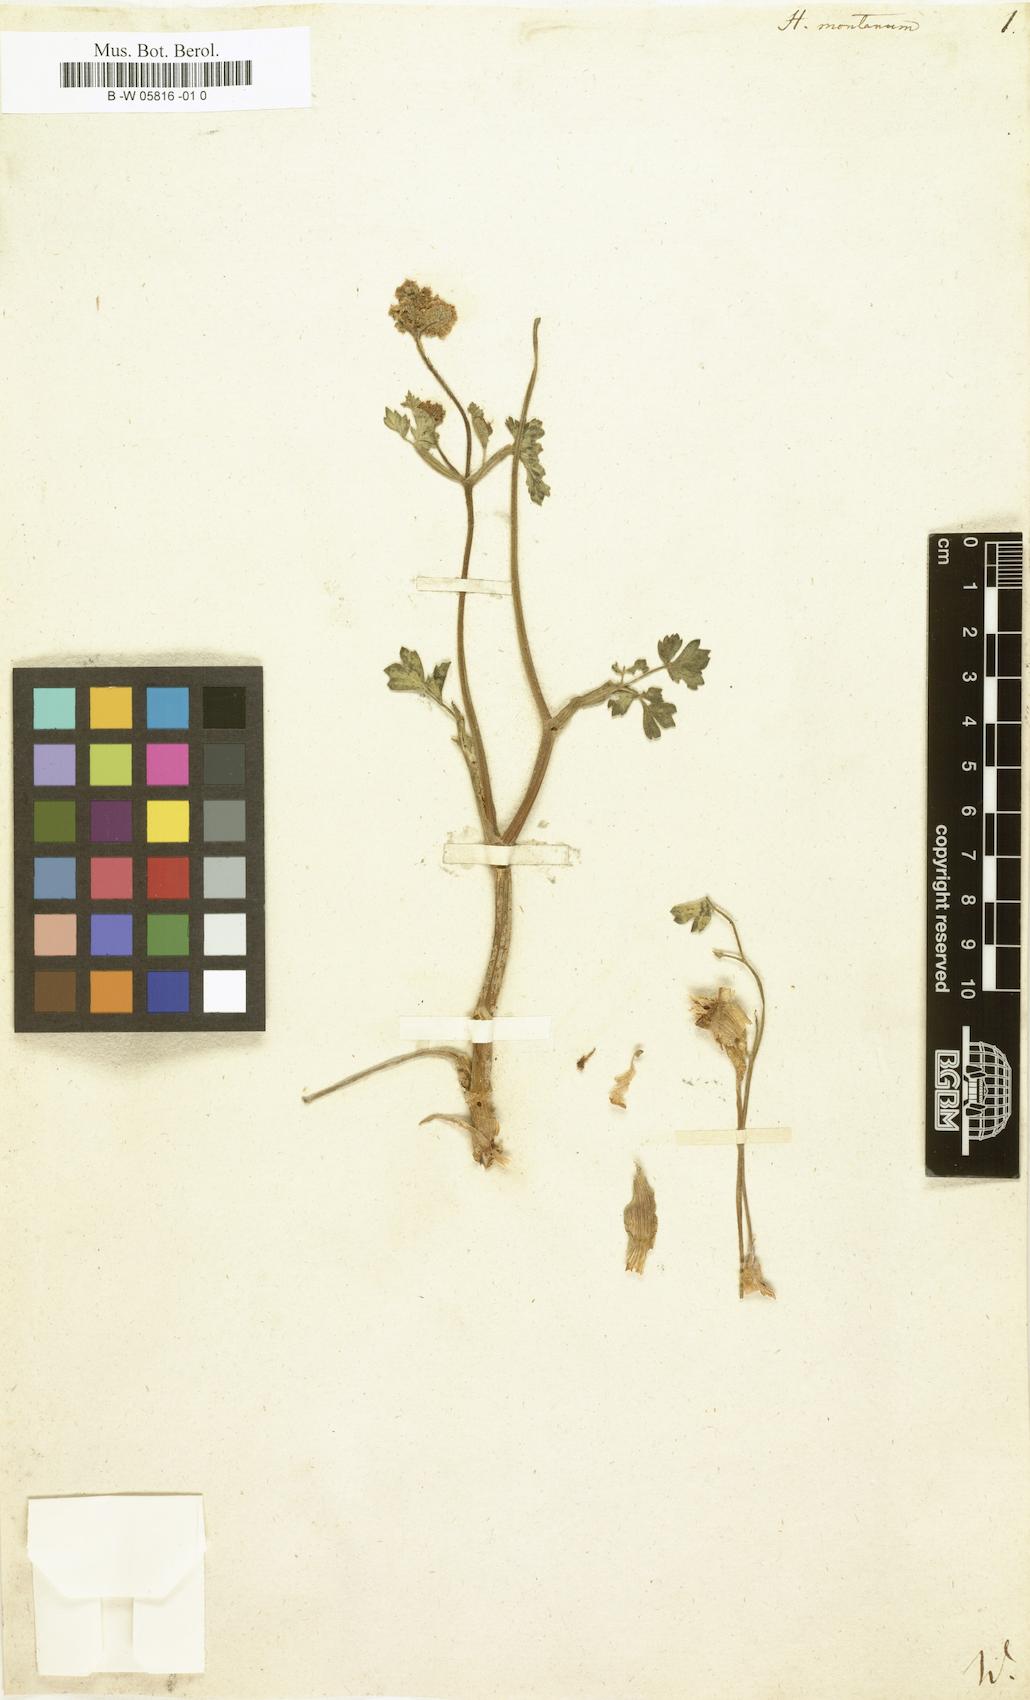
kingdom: Plantae
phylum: Tracheophyta
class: Magnoliopsida
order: Apiales
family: Apiaceae
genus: Heracleum
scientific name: Heracleum montanum
